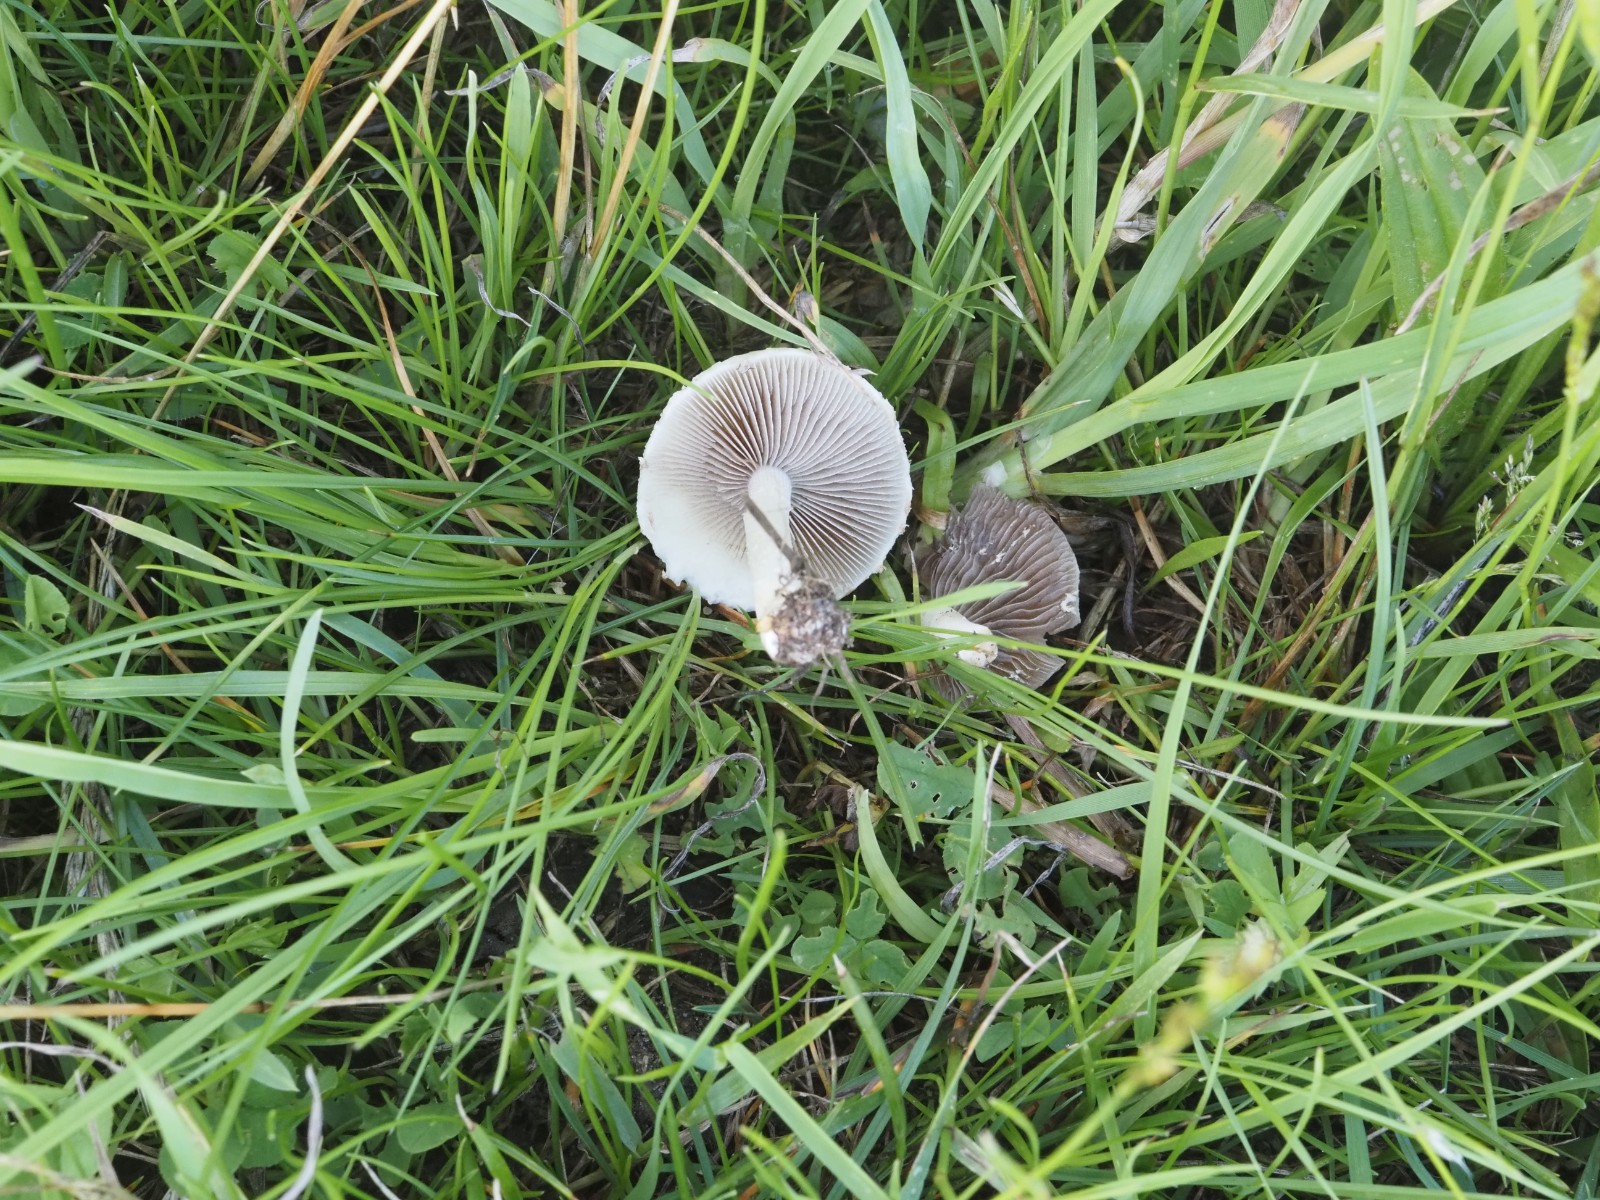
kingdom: Fungi
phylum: Basidiomycota
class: Agaricomycetes
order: Agaricales
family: Psathyrellaceae
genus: Candolleomyces
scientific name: Candolleomyces candolleanus
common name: Candolles mørkhat
